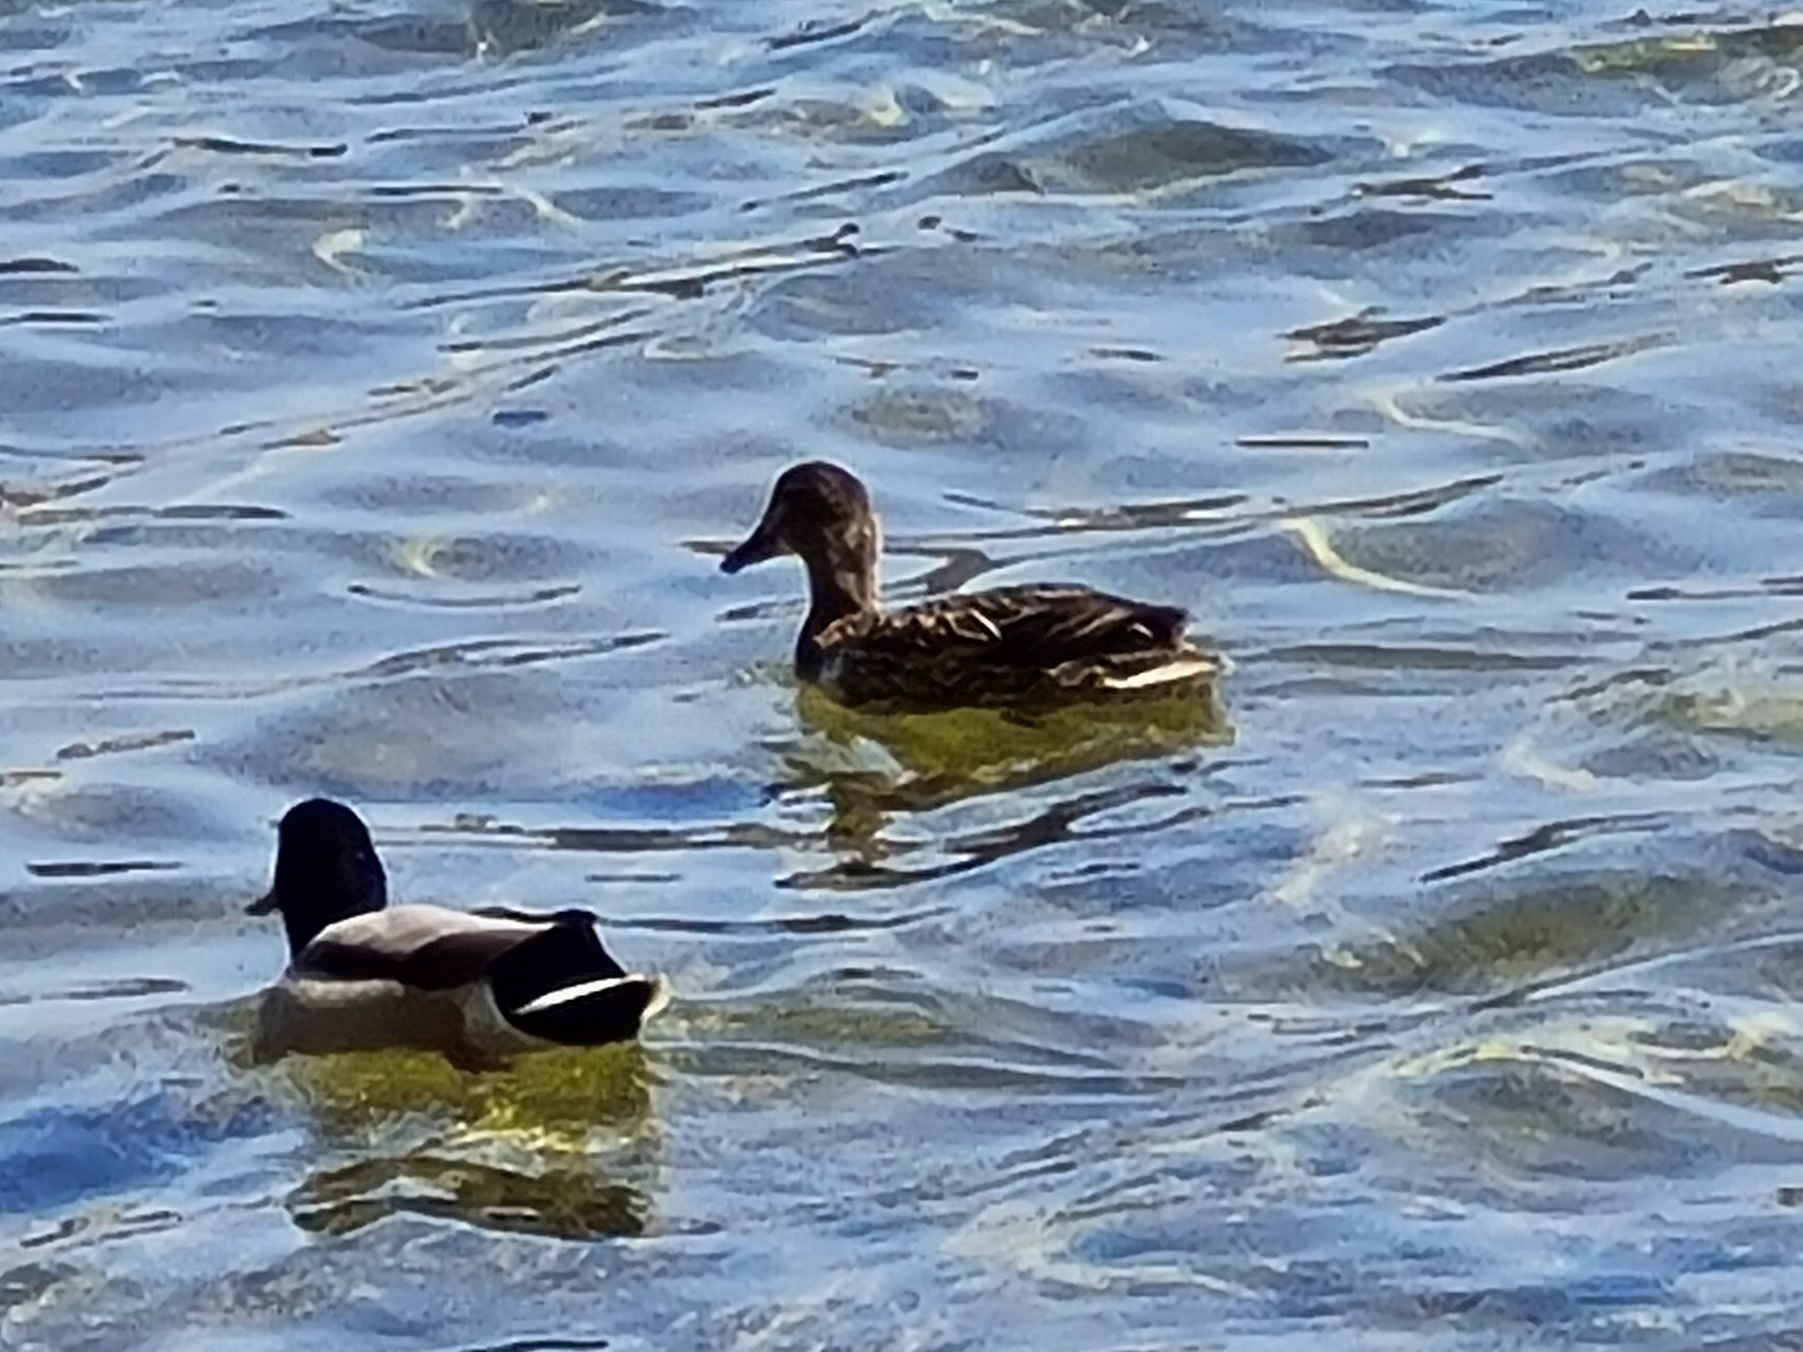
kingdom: Animalia
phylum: Chordata
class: Aves
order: Anseriformes
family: Anatidae
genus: Anas
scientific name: Anas platyrhynchos
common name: Gråand
